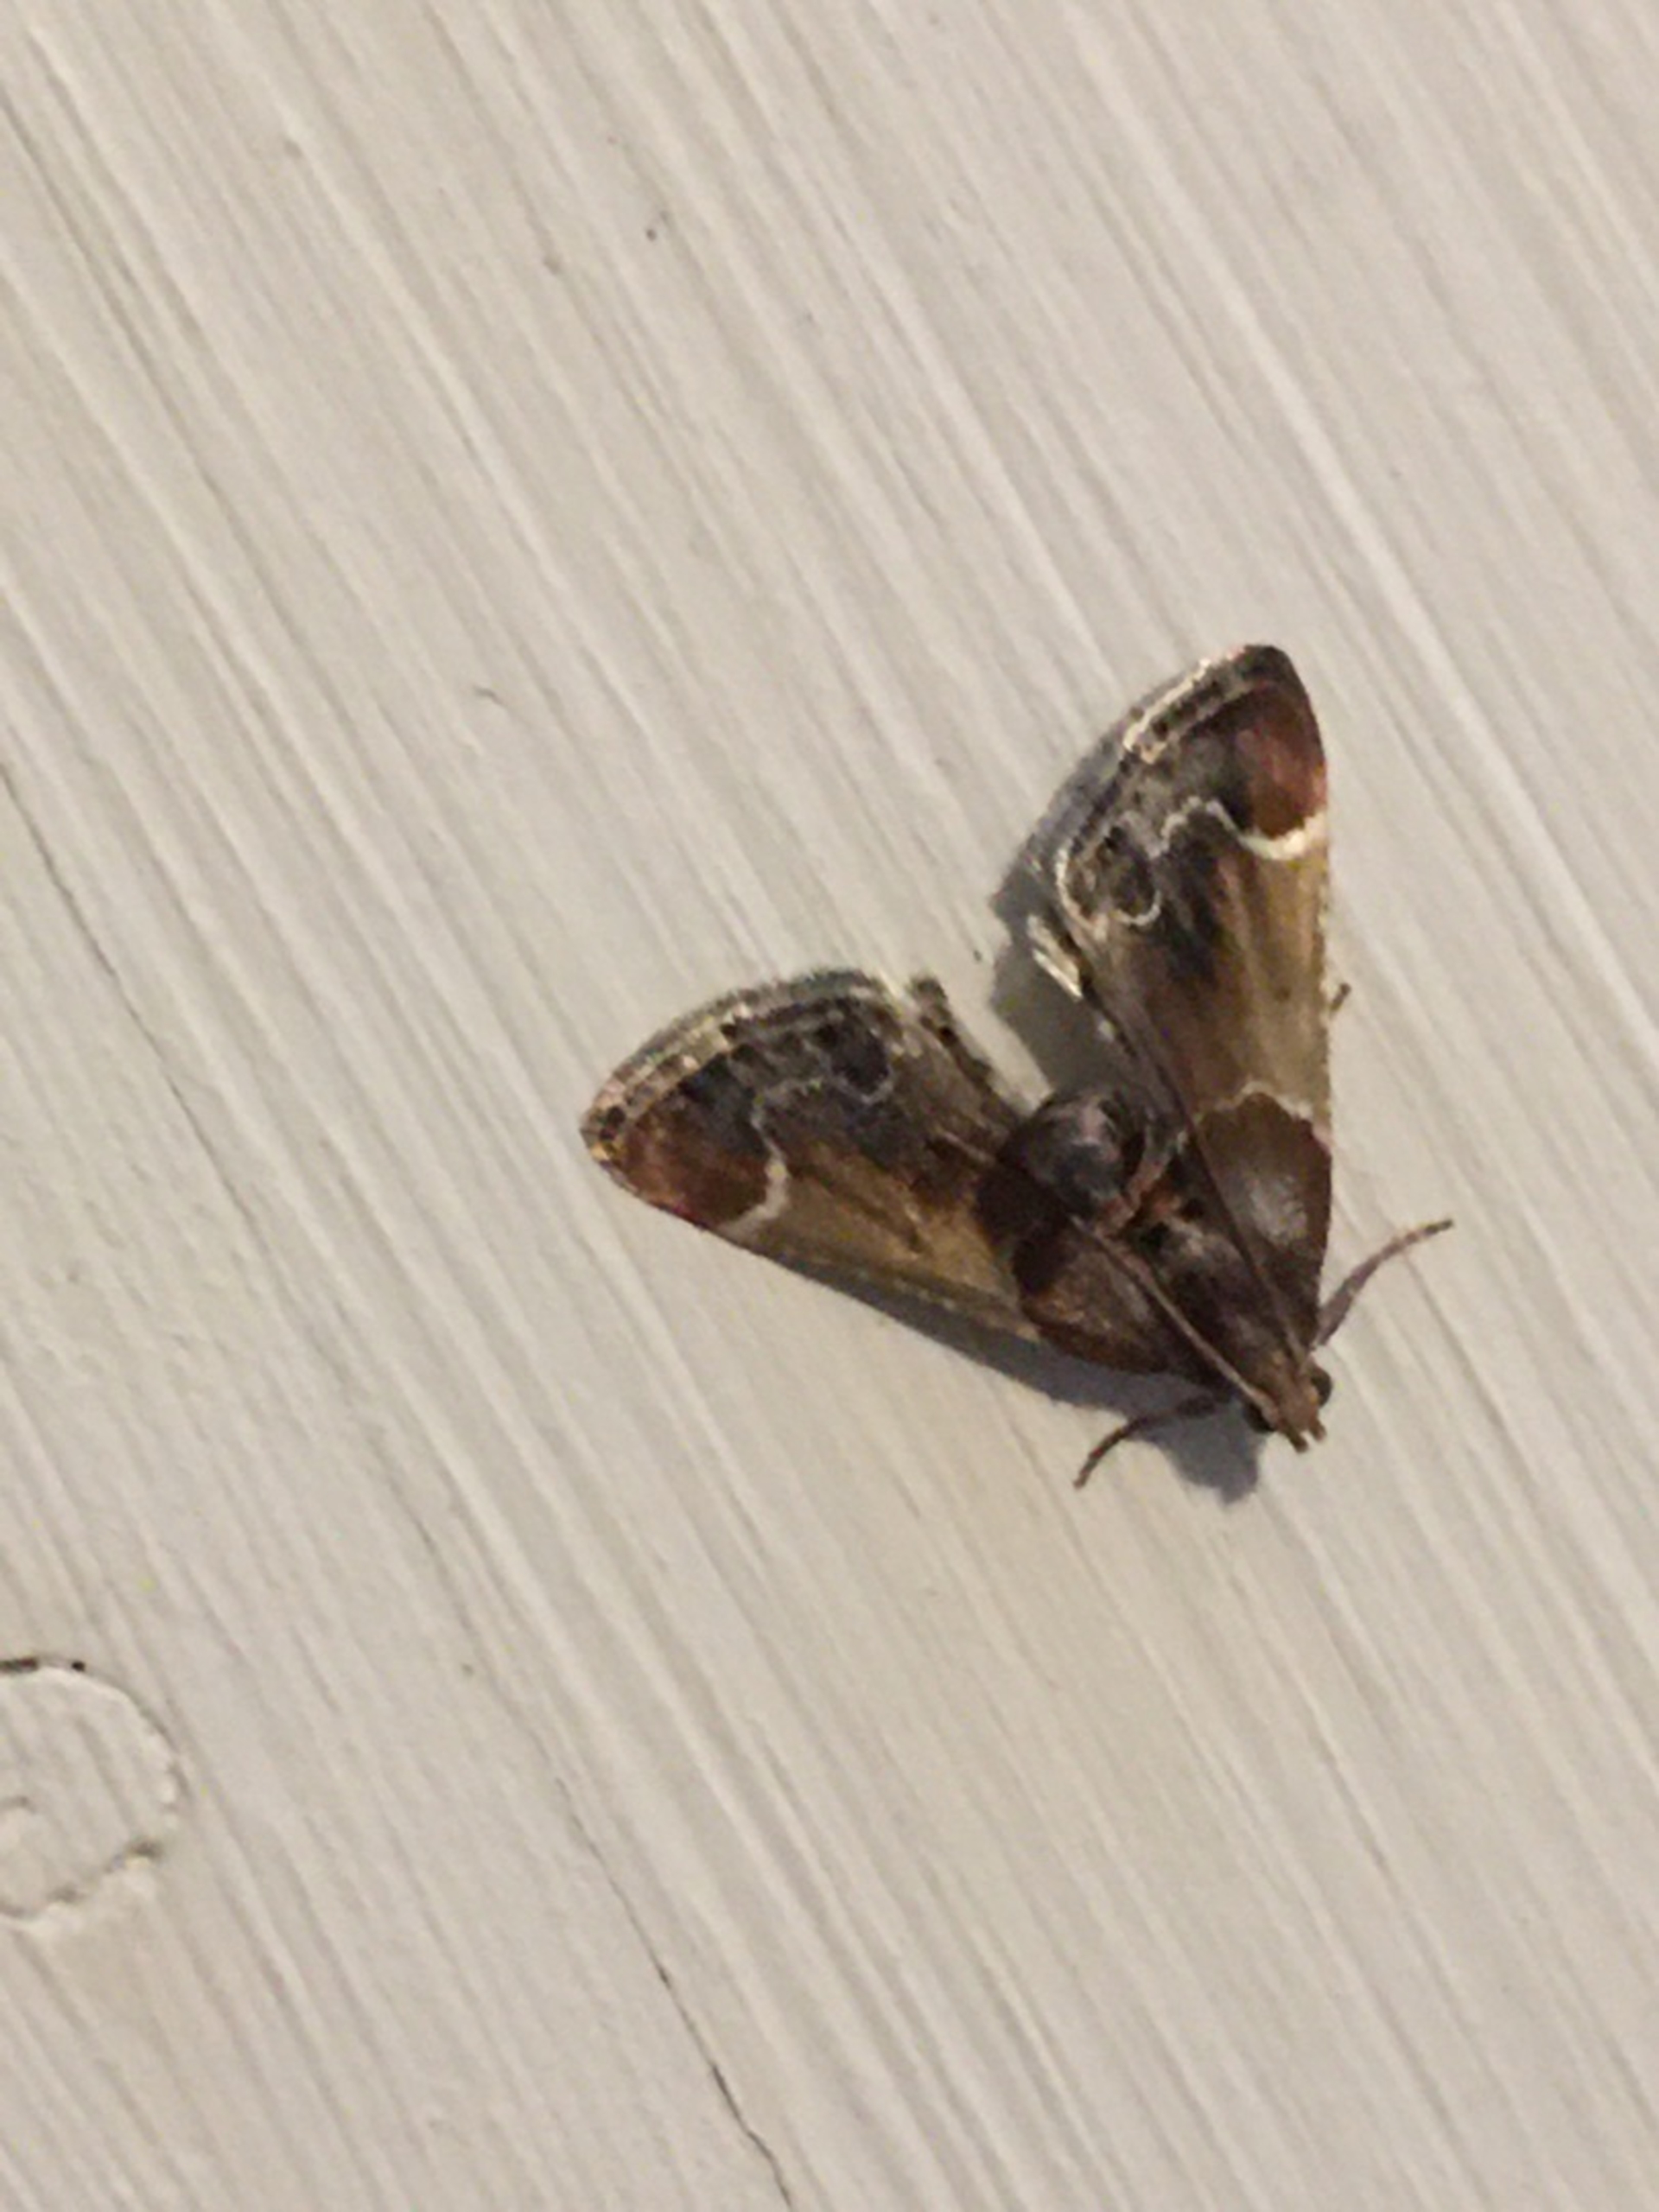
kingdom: Animalia
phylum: Arthropoda
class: Insecta
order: Lepidoptera
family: Pyralidae
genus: Pyralis
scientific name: Pyralis farinalis
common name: Stort melmøl
